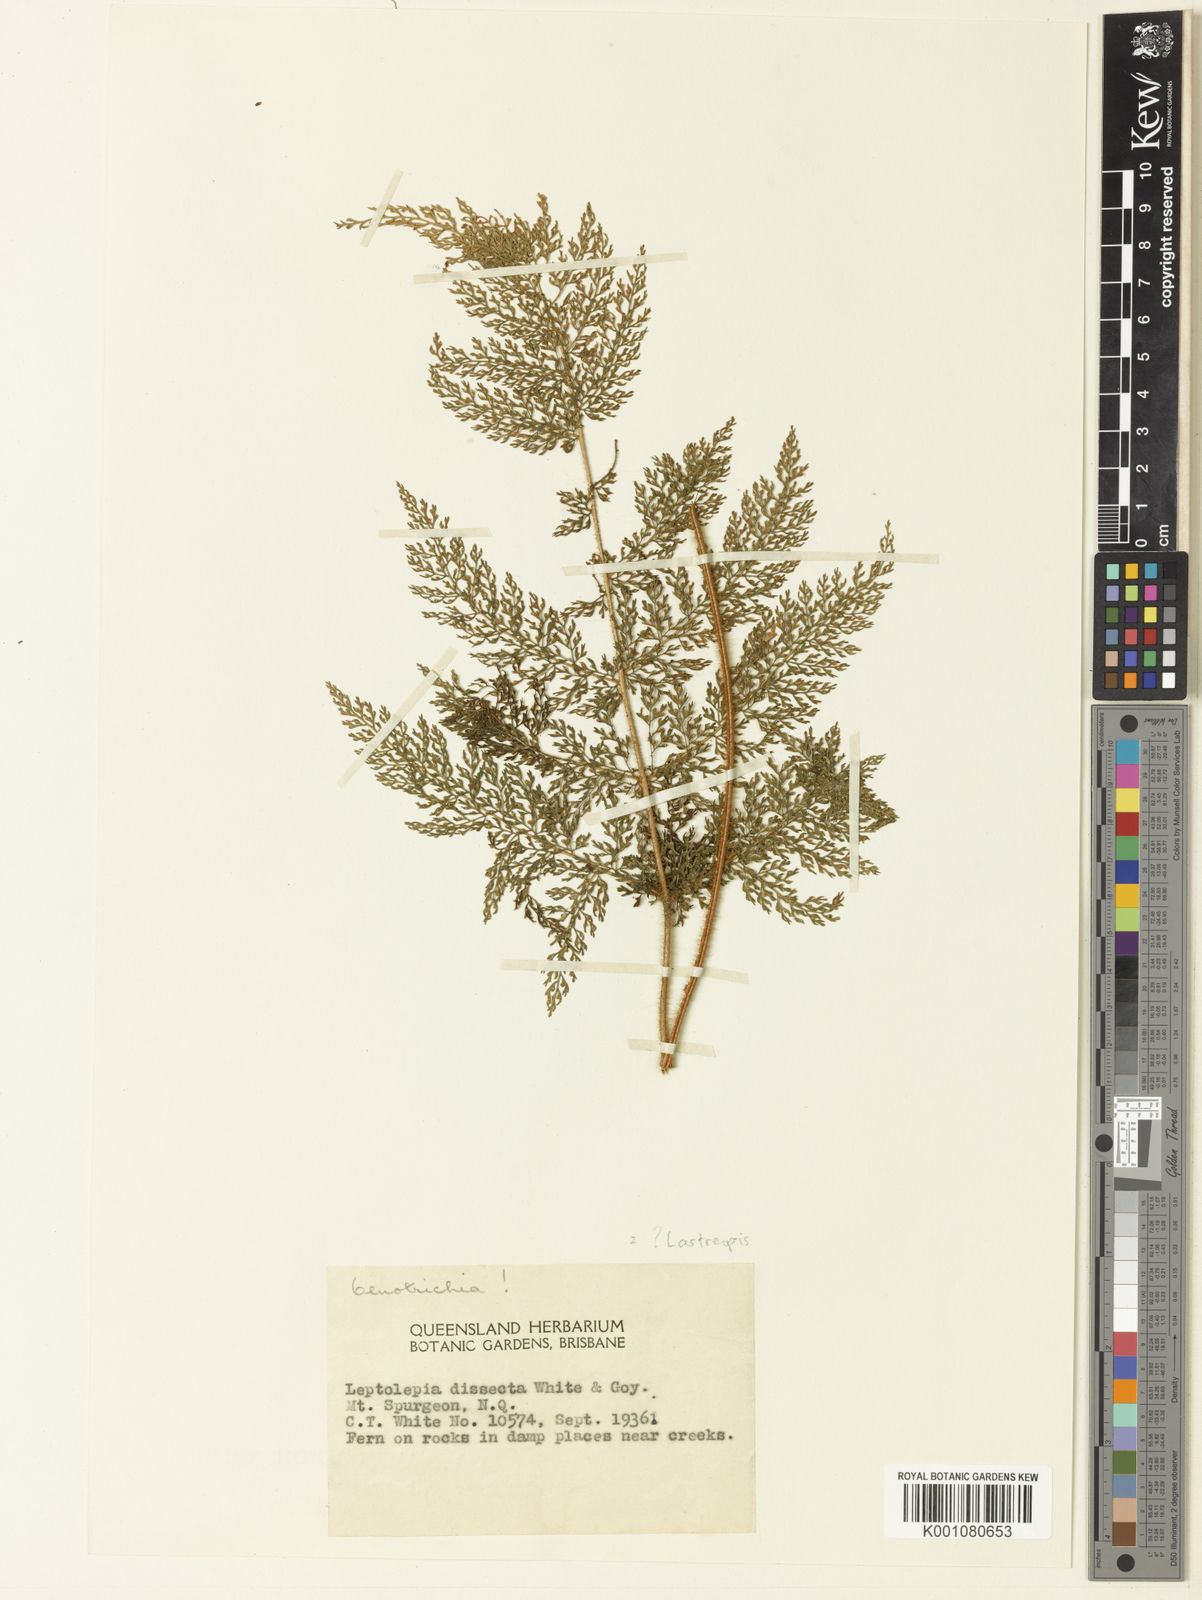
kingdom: Plantae
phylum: Tracheophyta
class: Polypodiopsida
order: Polypodiales
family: Dryopteridaceae
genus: Lastreopsis
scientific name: Lastreopsis dissecta
